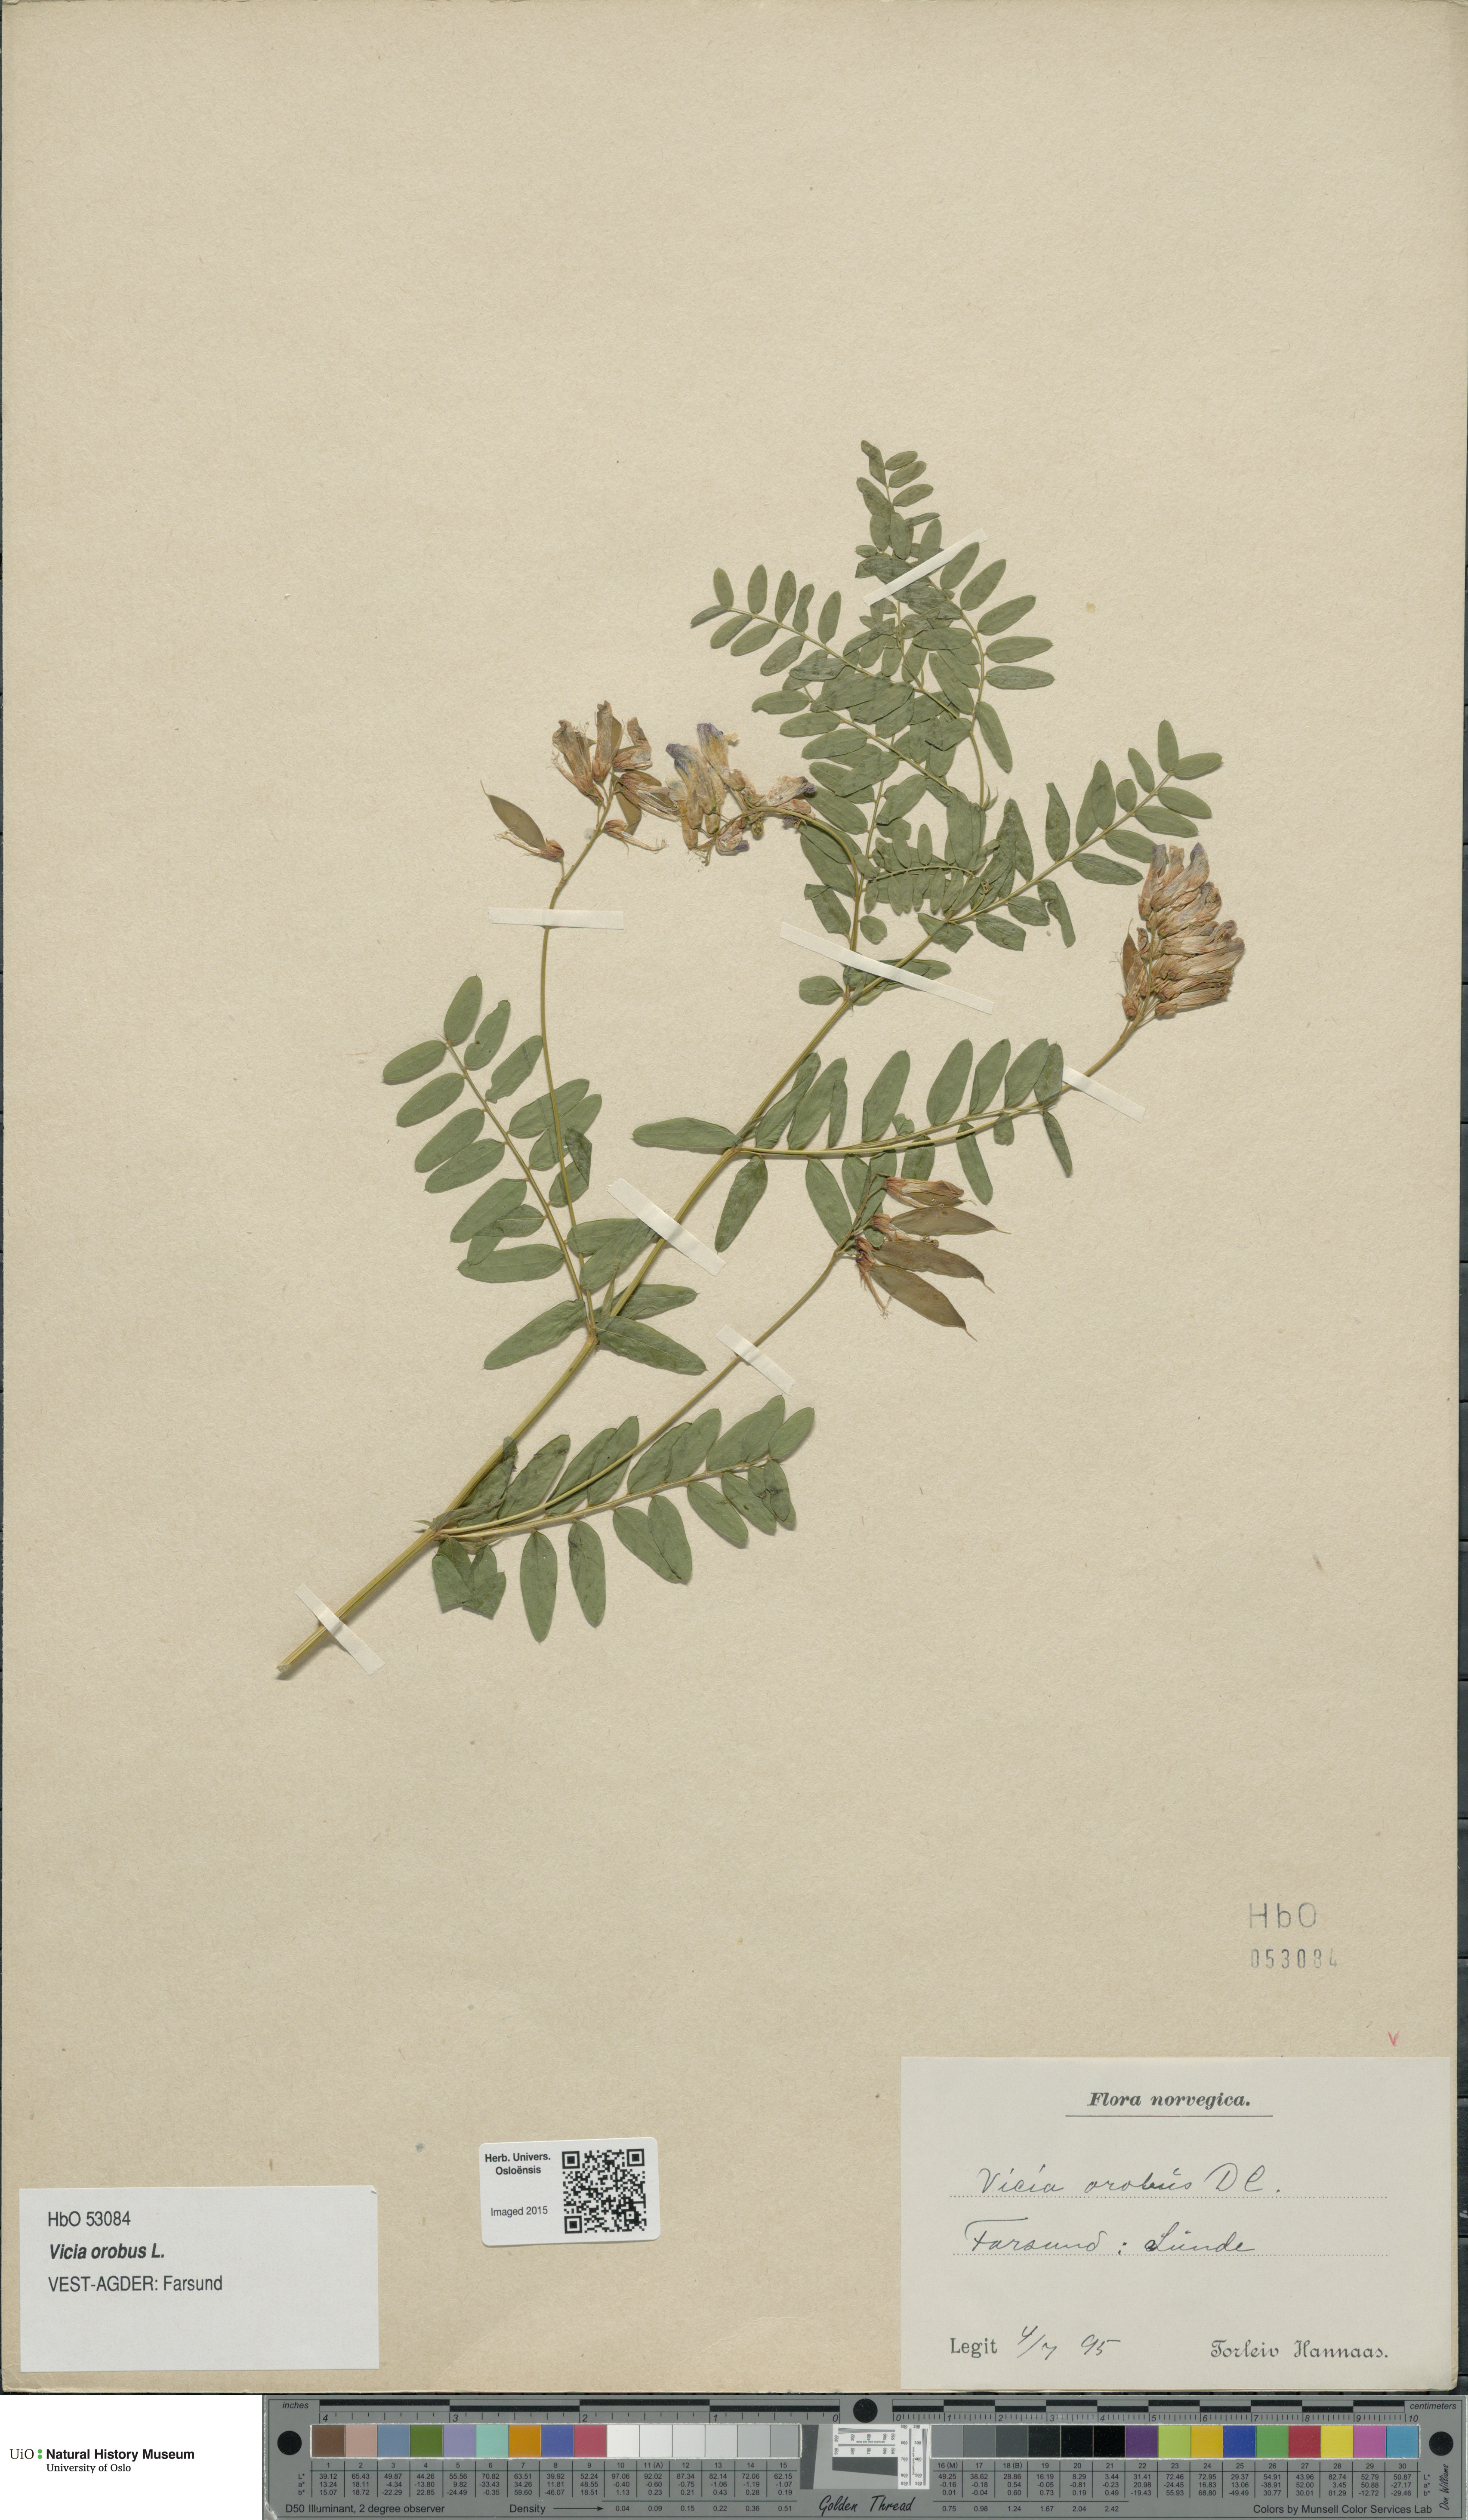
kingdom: Plantae
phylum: Tracheophyta
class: Magnoliopsida
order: Fabales
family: Fabaceae
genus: Vicia
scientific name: Vicia orobus
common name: Wood bitter-vetch
